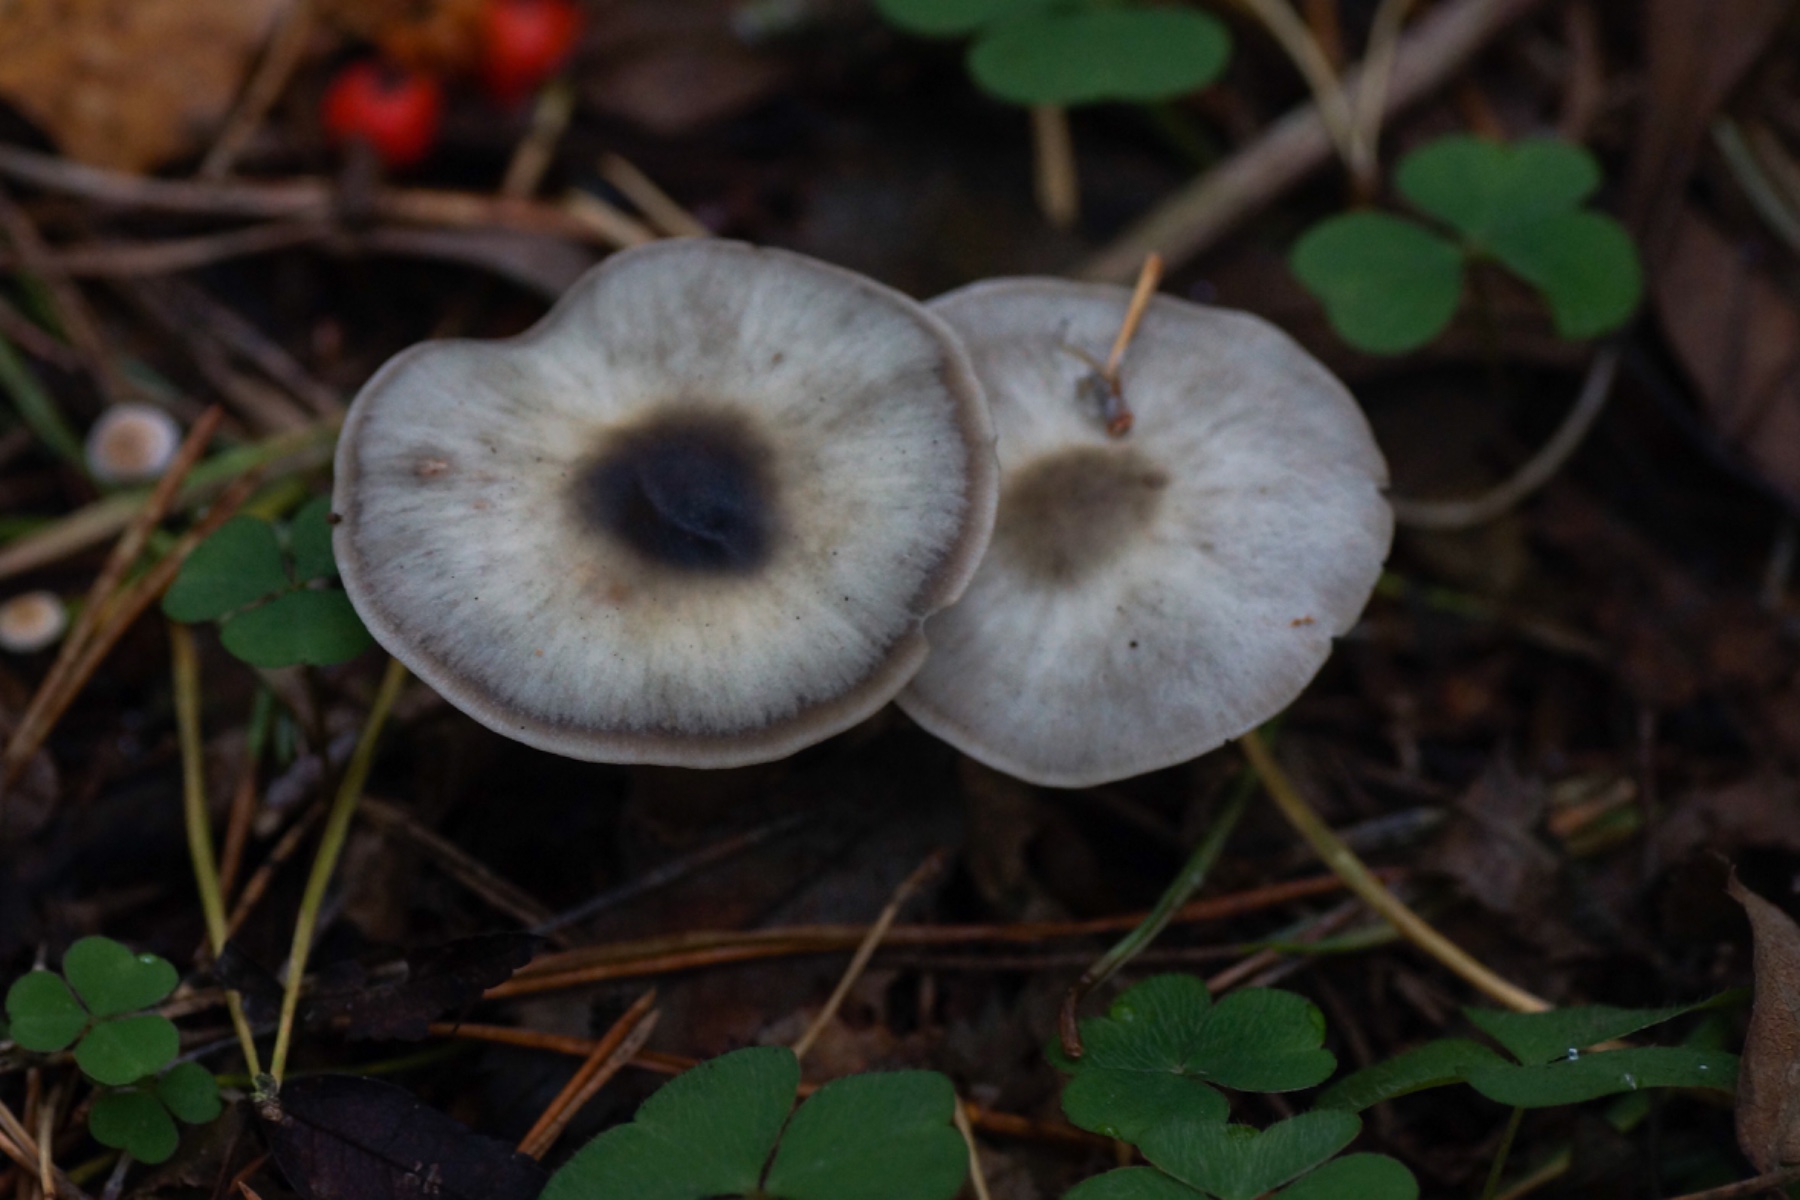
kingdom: Fungi
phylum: Basidiomycota
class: Agaricomycetes
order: Agaricales
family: Omphalotaceae
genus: Rhodocollybia
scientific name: Rhodocollybia asema
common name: horngrå fladhat
